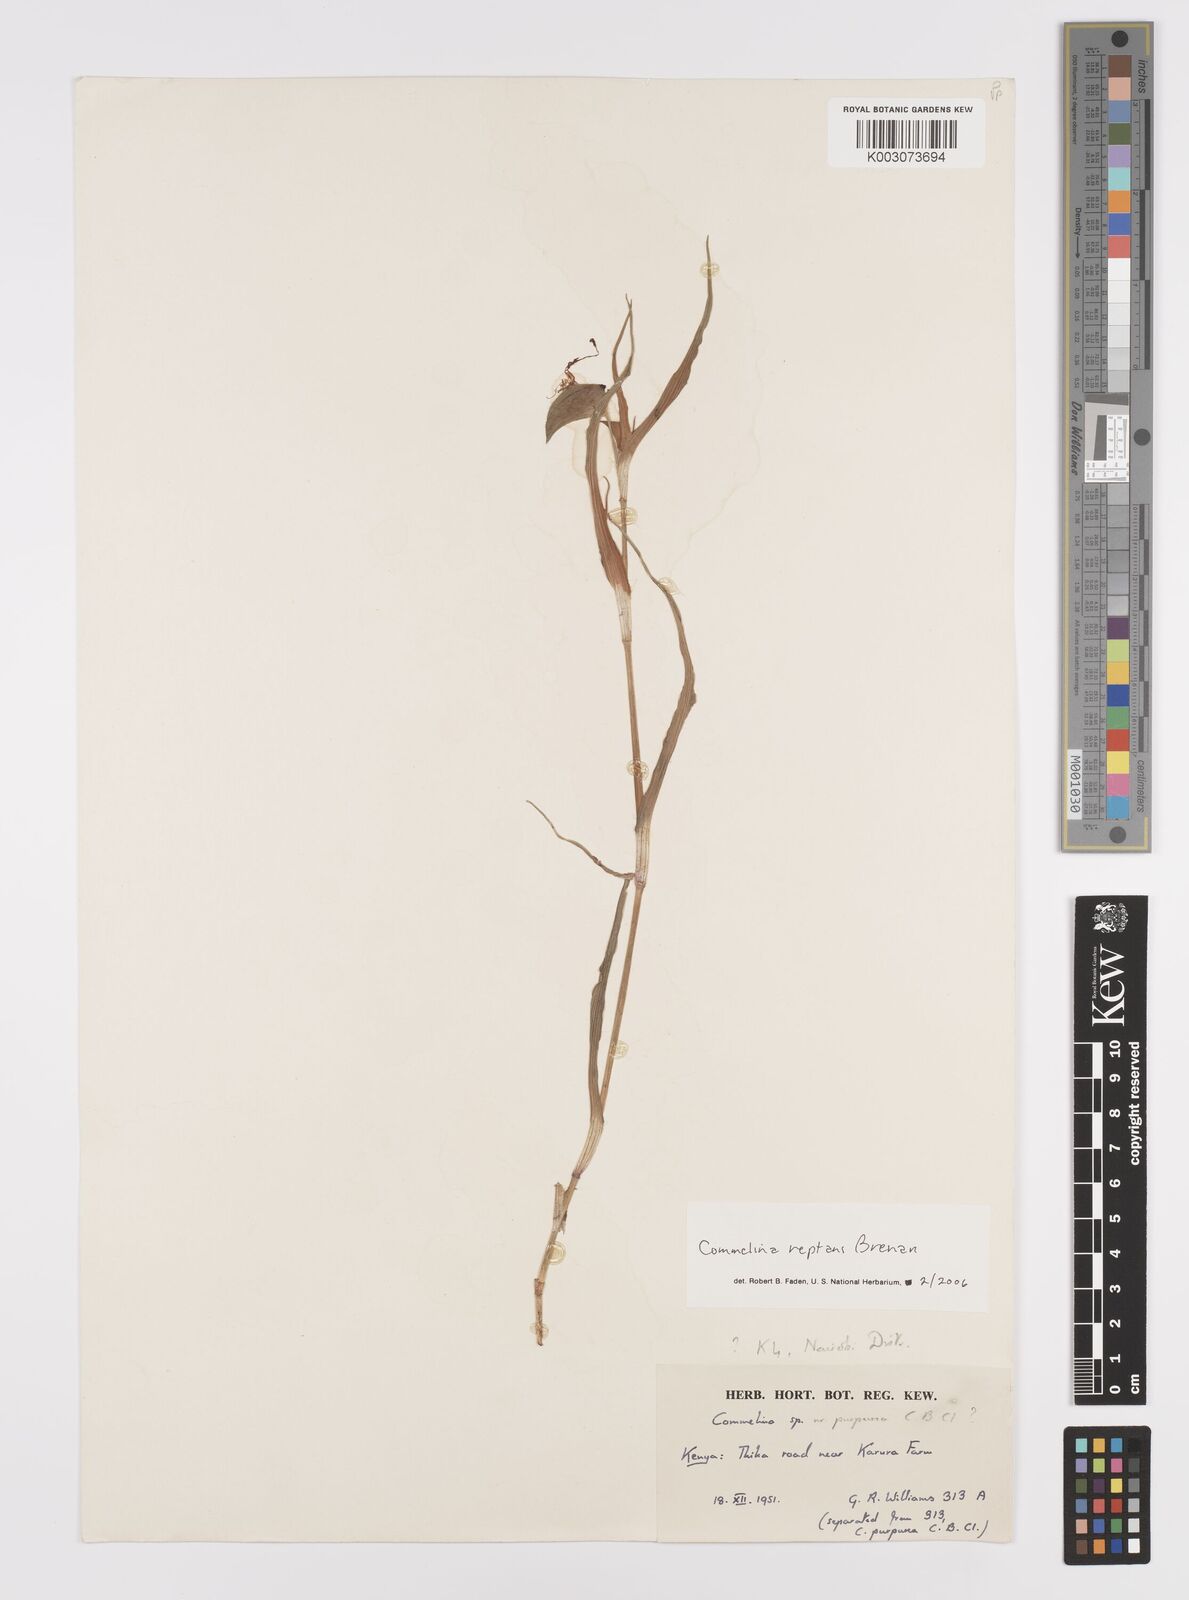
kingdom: Plantae
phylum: Tracheophyta
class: Liliopsida
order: Commelinales
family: Commelinaceae
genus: Commelina
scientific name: Commelina reptans
